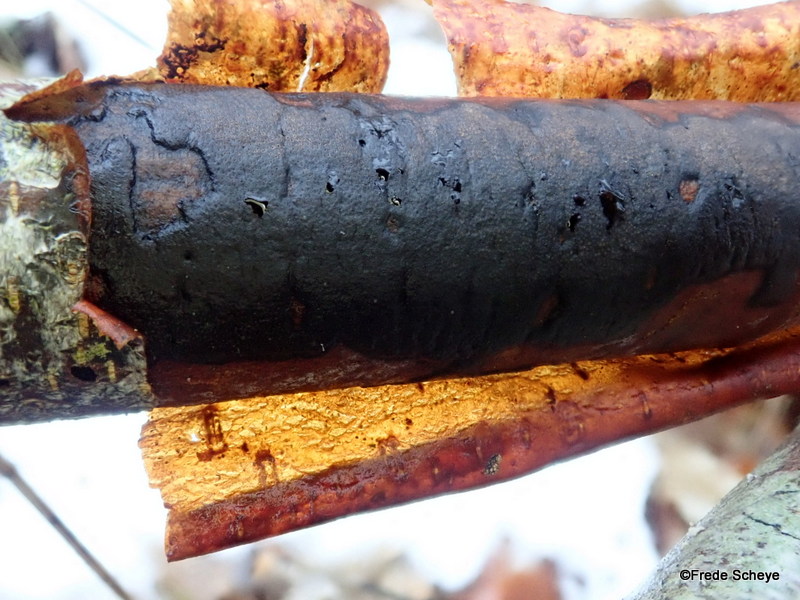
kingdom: Fungi
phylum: Ascomycota
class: Sordariomycetes
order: Xylariales
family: Diatrypaceae
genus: Diatrype
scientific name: Diatrype decorticata
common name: barksprænger-kulskorpe
